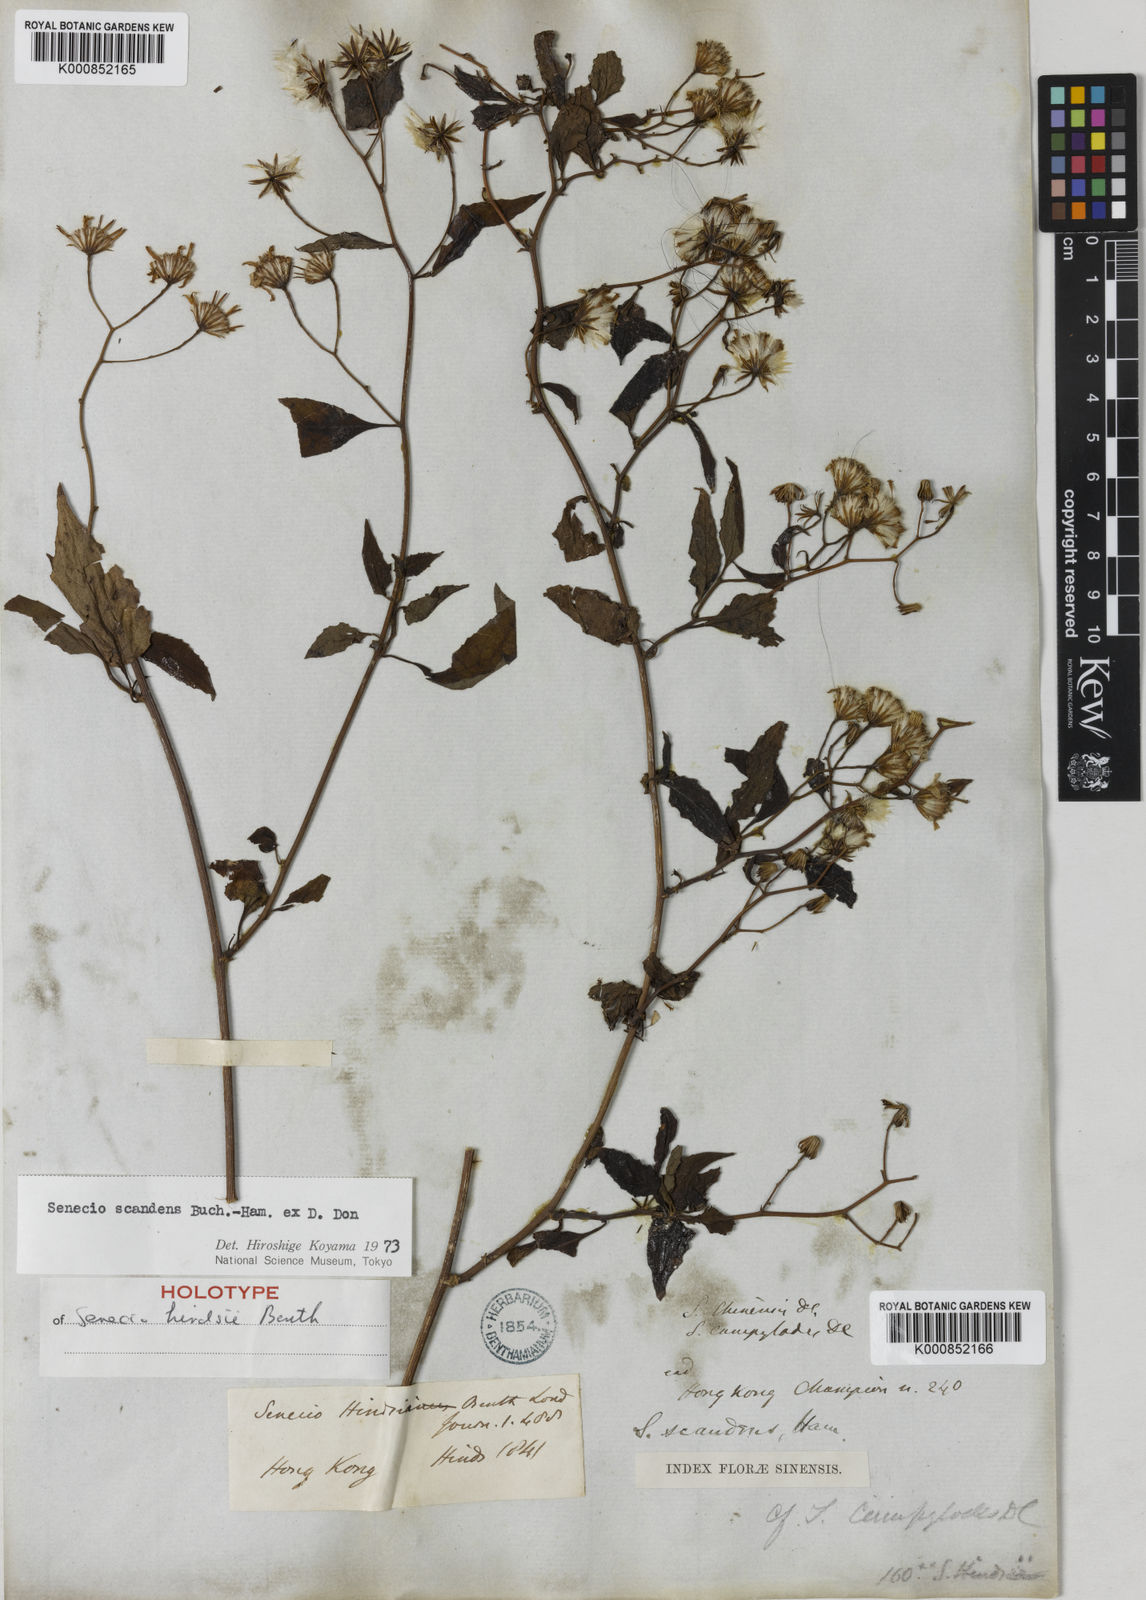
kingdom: Plantae
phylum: Tracheophyta
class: Magnoliopsida
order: Asterales
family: Asteraceae
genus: Senecio
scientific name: Senecio scandens
